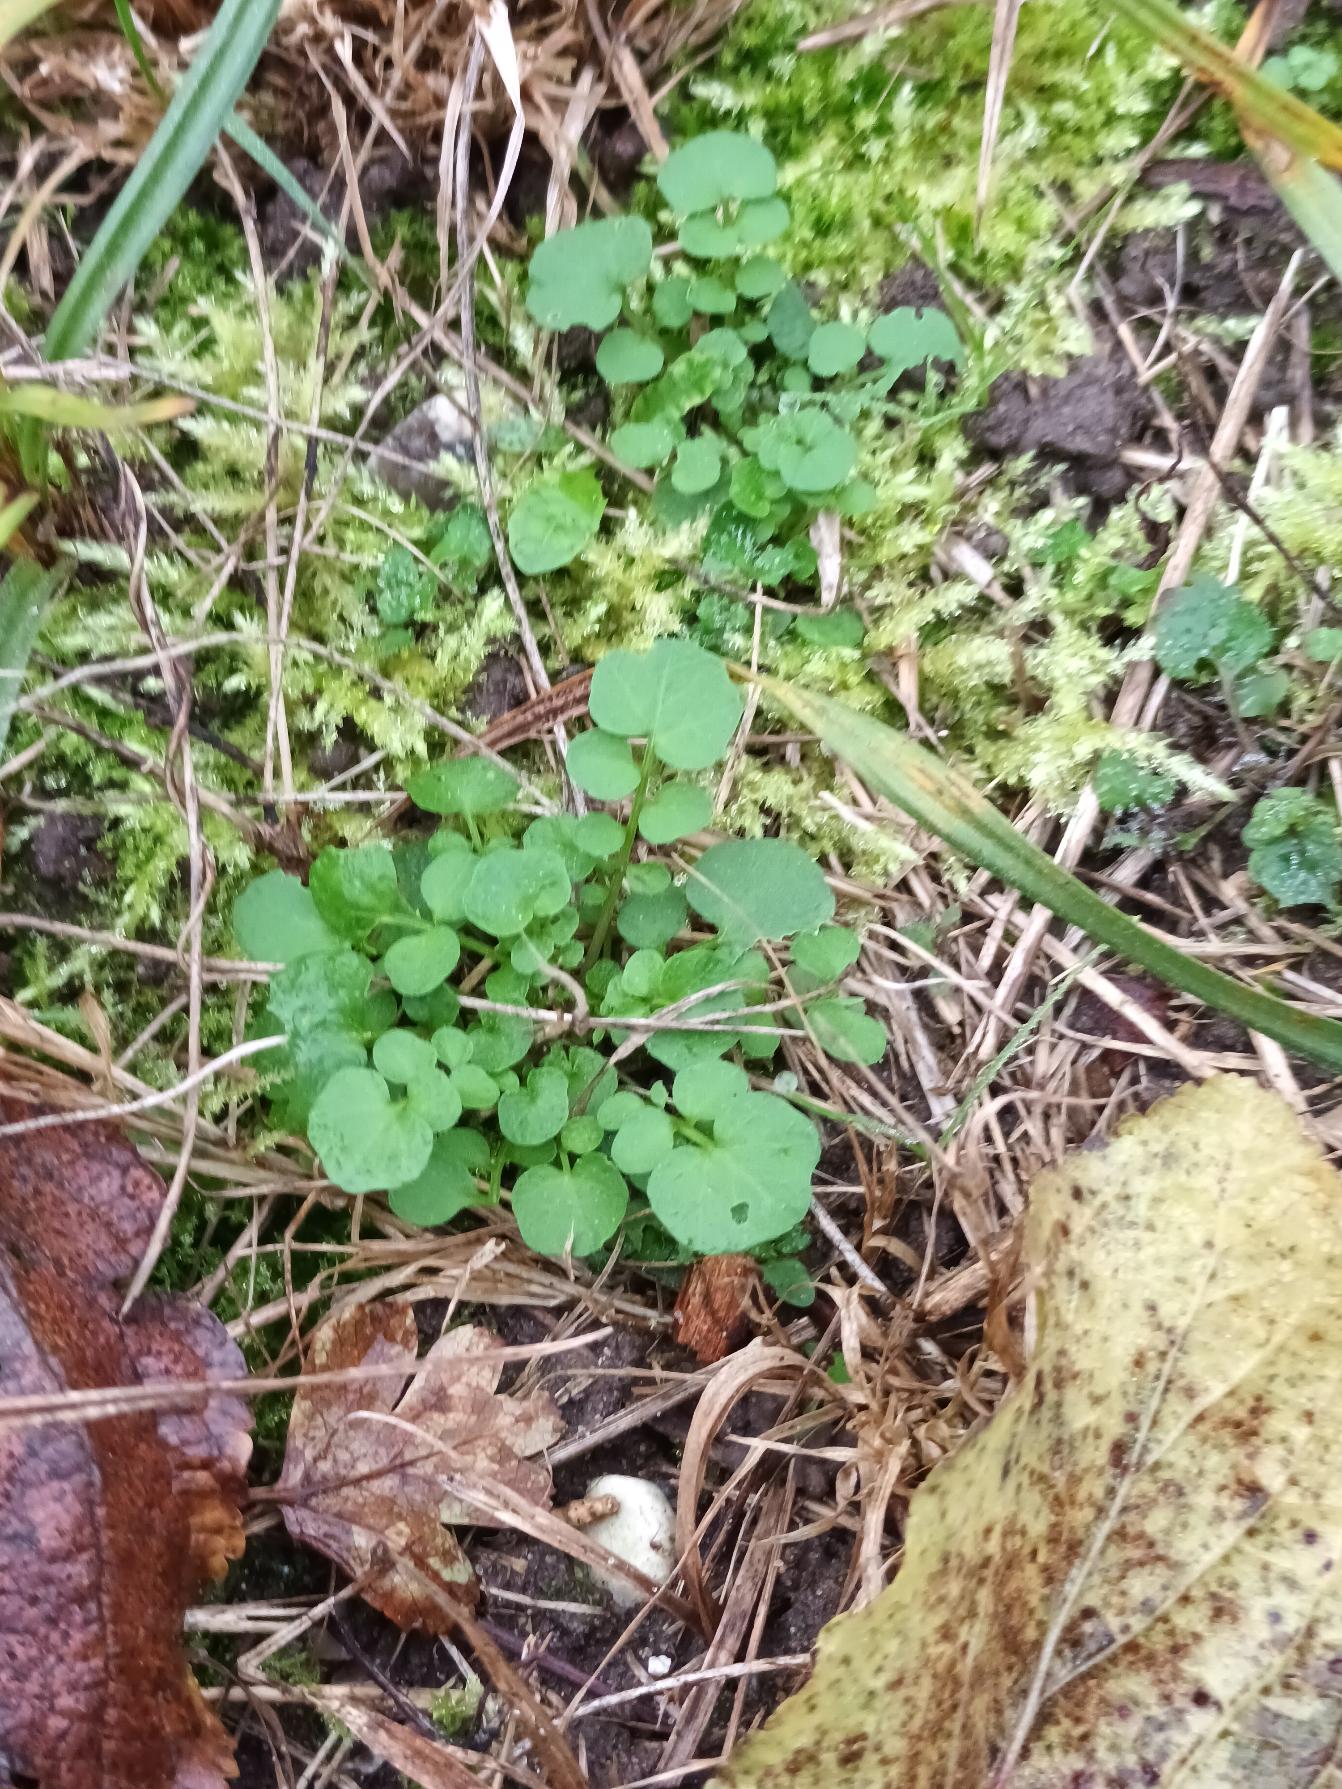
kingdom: Plantae
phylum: Tracheophyta
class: Magnoliopsida
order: Brassicales
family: Brassicaceae
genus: Cardamine
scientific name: Cardamine hirsuta
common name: Roset-springklap
